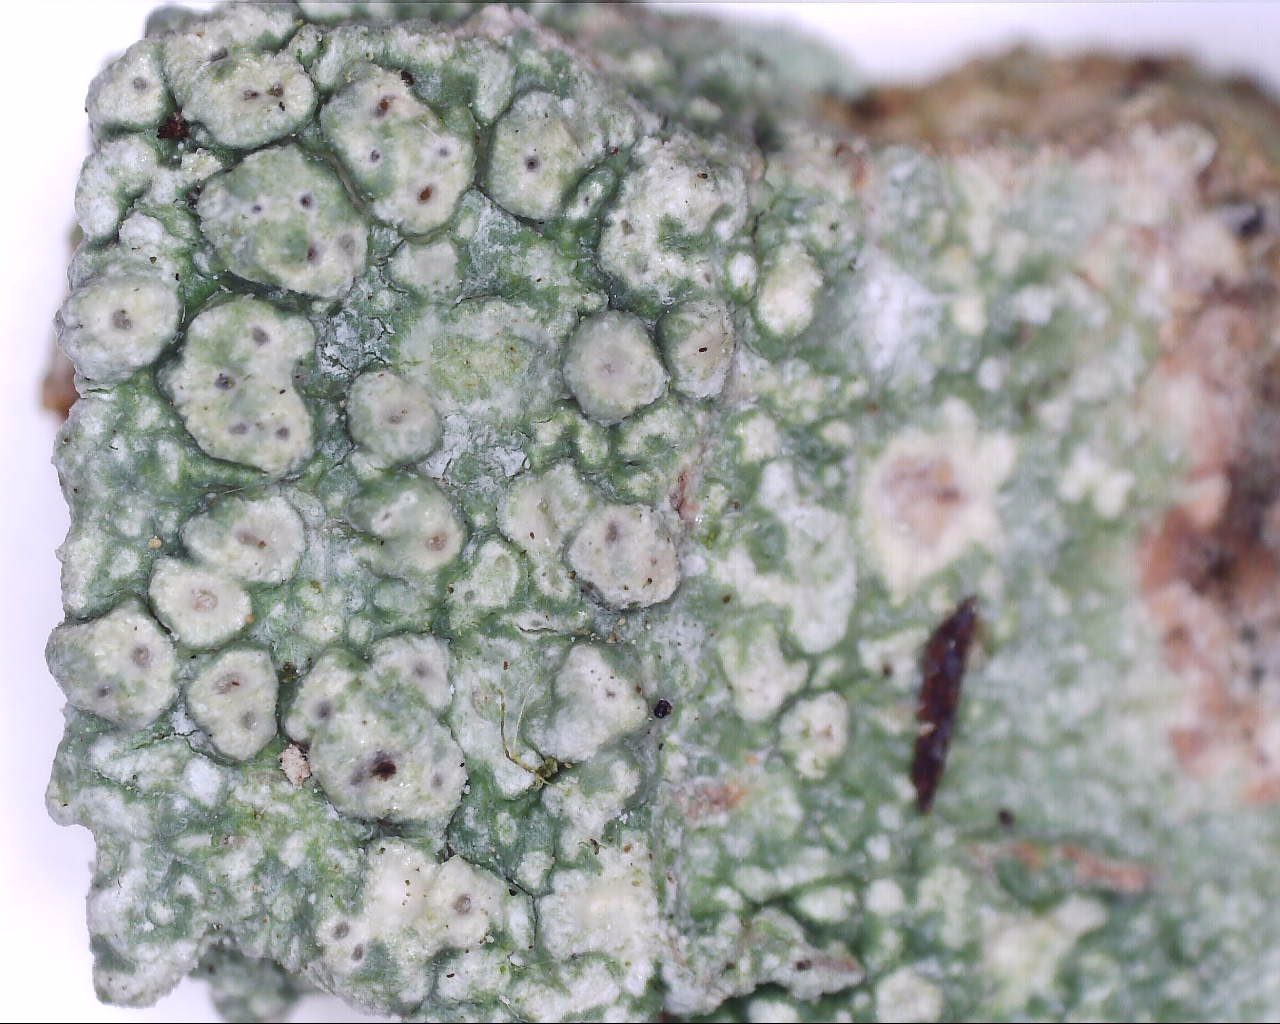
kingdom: Fungi
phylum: Ascomycota
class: Lecanoromycetes
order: Pertusariales
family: Pertusariaceae
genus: Pertusaria
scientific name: Pertusaria pertusa
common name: almindelig prikvortelav
